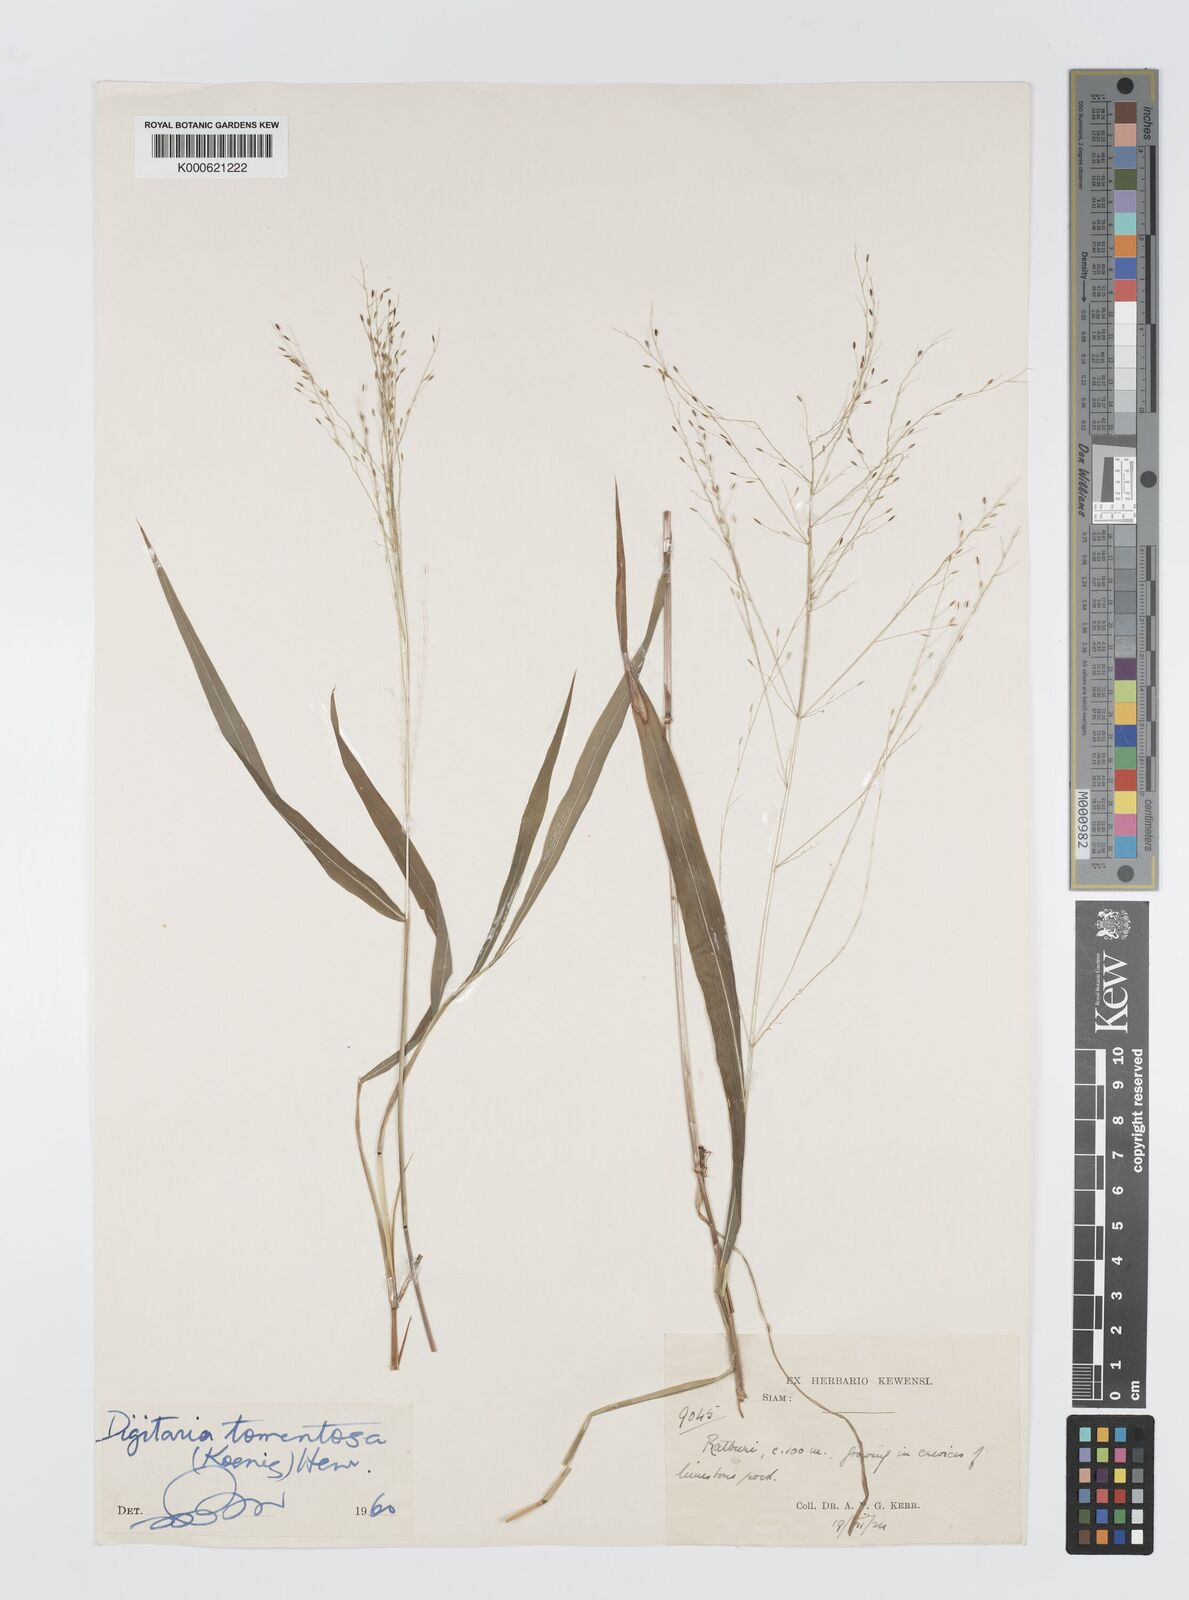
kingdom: Plantae
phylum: Tracheophyta
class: Liliopsida
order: Poales
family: Poaceae
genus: Digitaria
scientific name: Digitaria tomentosa
